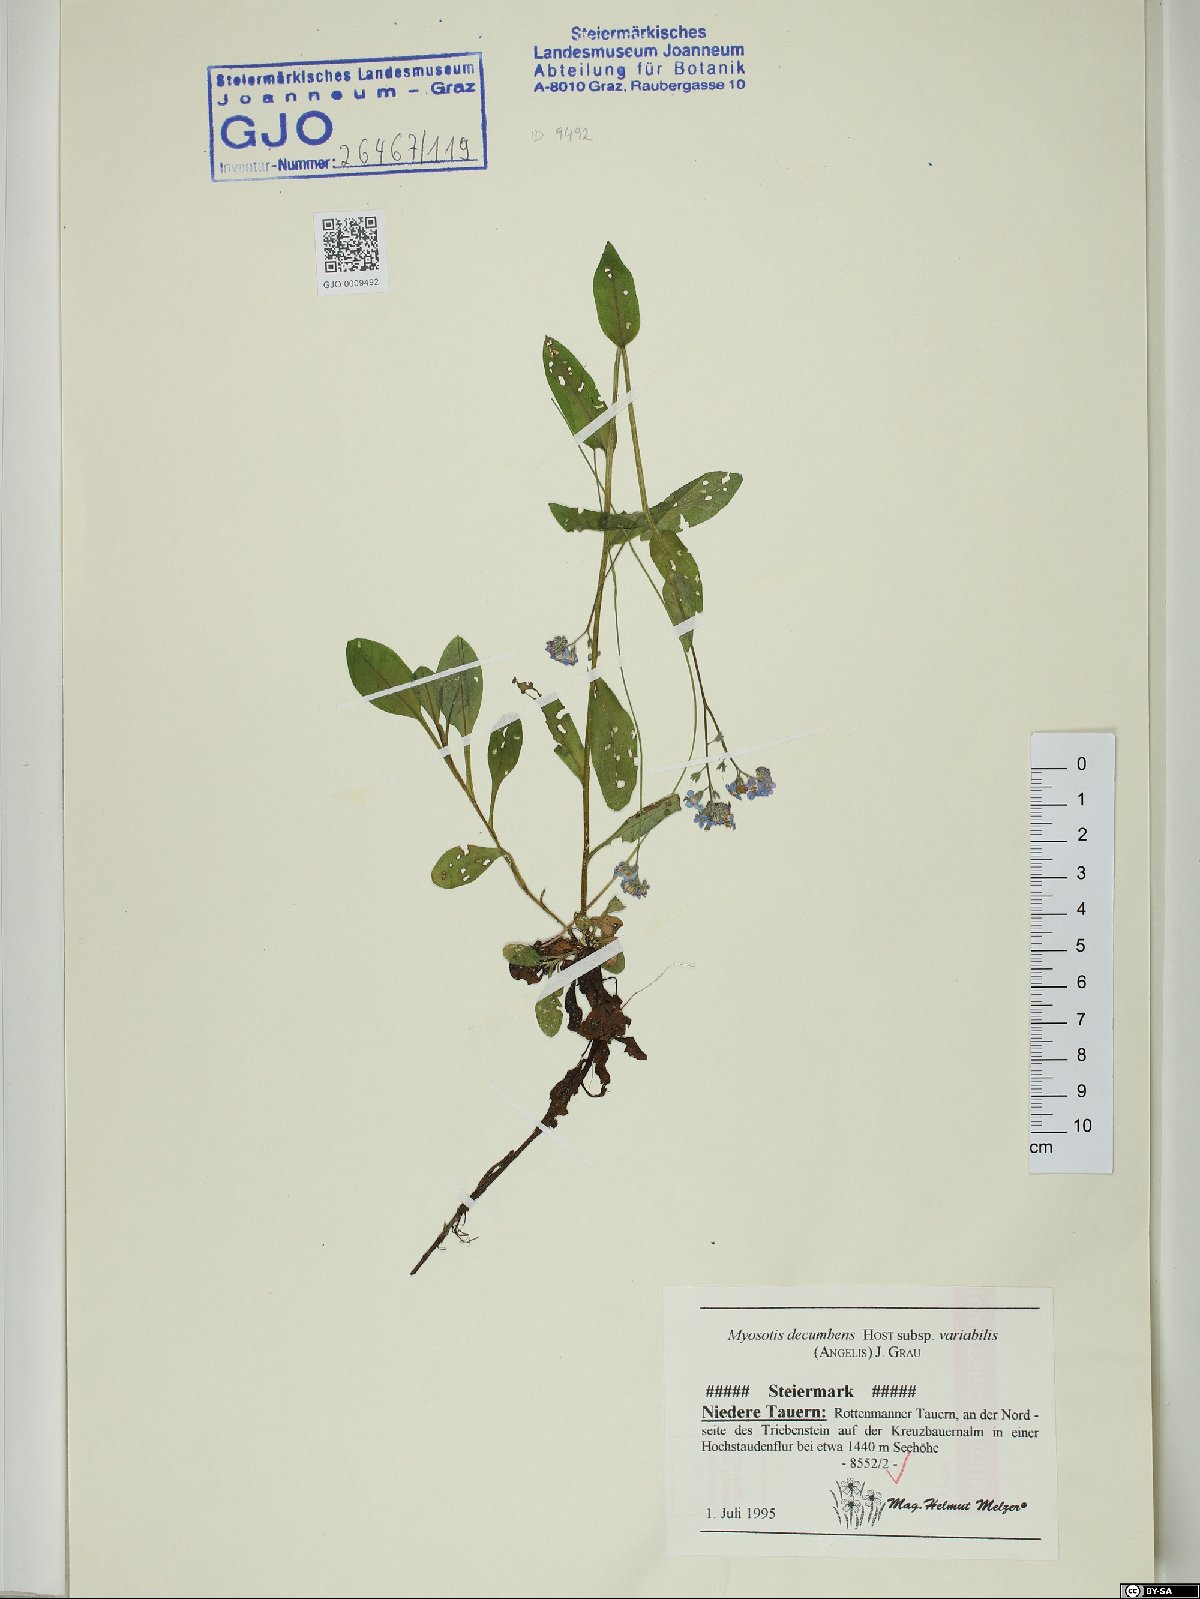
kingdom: Plantae
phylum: Tracheophyta
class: Magnoliopsida
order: Boraginales
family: Boraginaceae
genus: Myosotis
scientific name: Myosotis decumbens
